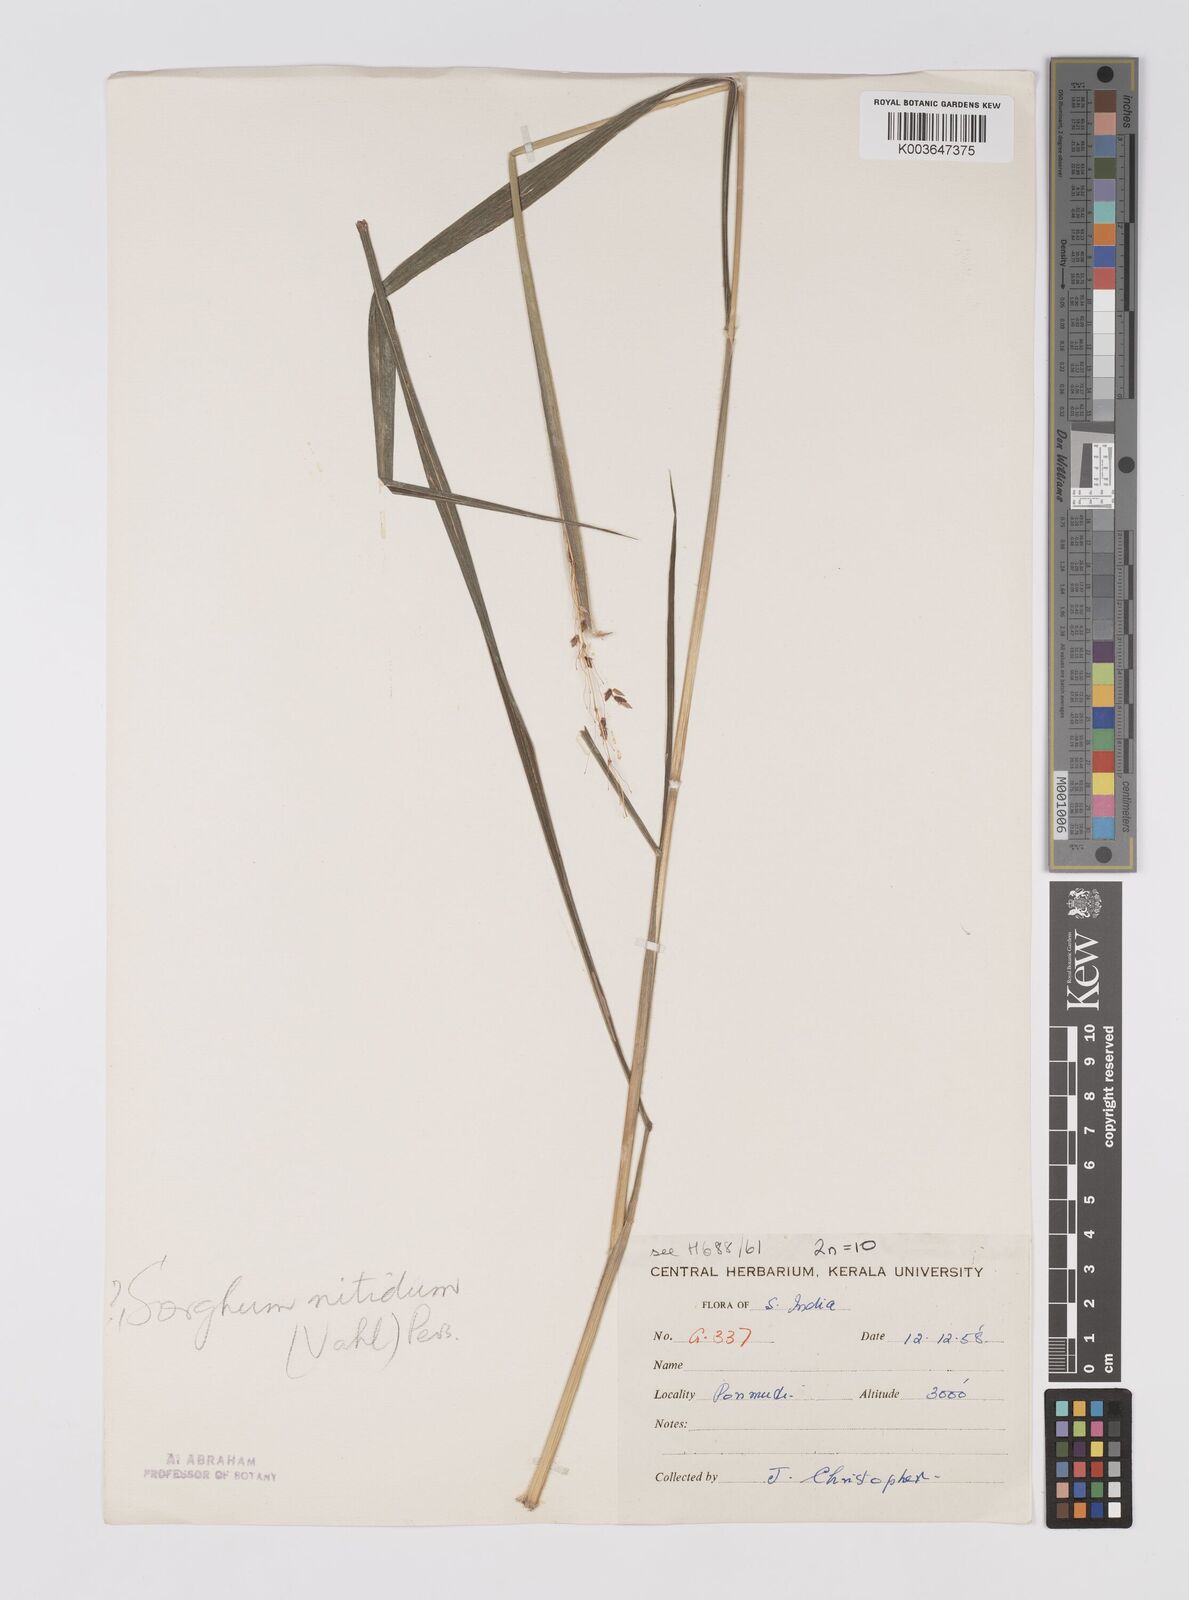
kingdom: Plantae
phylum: Tracheophyta
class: Liliopsida
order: Poales
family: Poaceae
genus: Sorghum
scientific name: Sorghum nitidum
